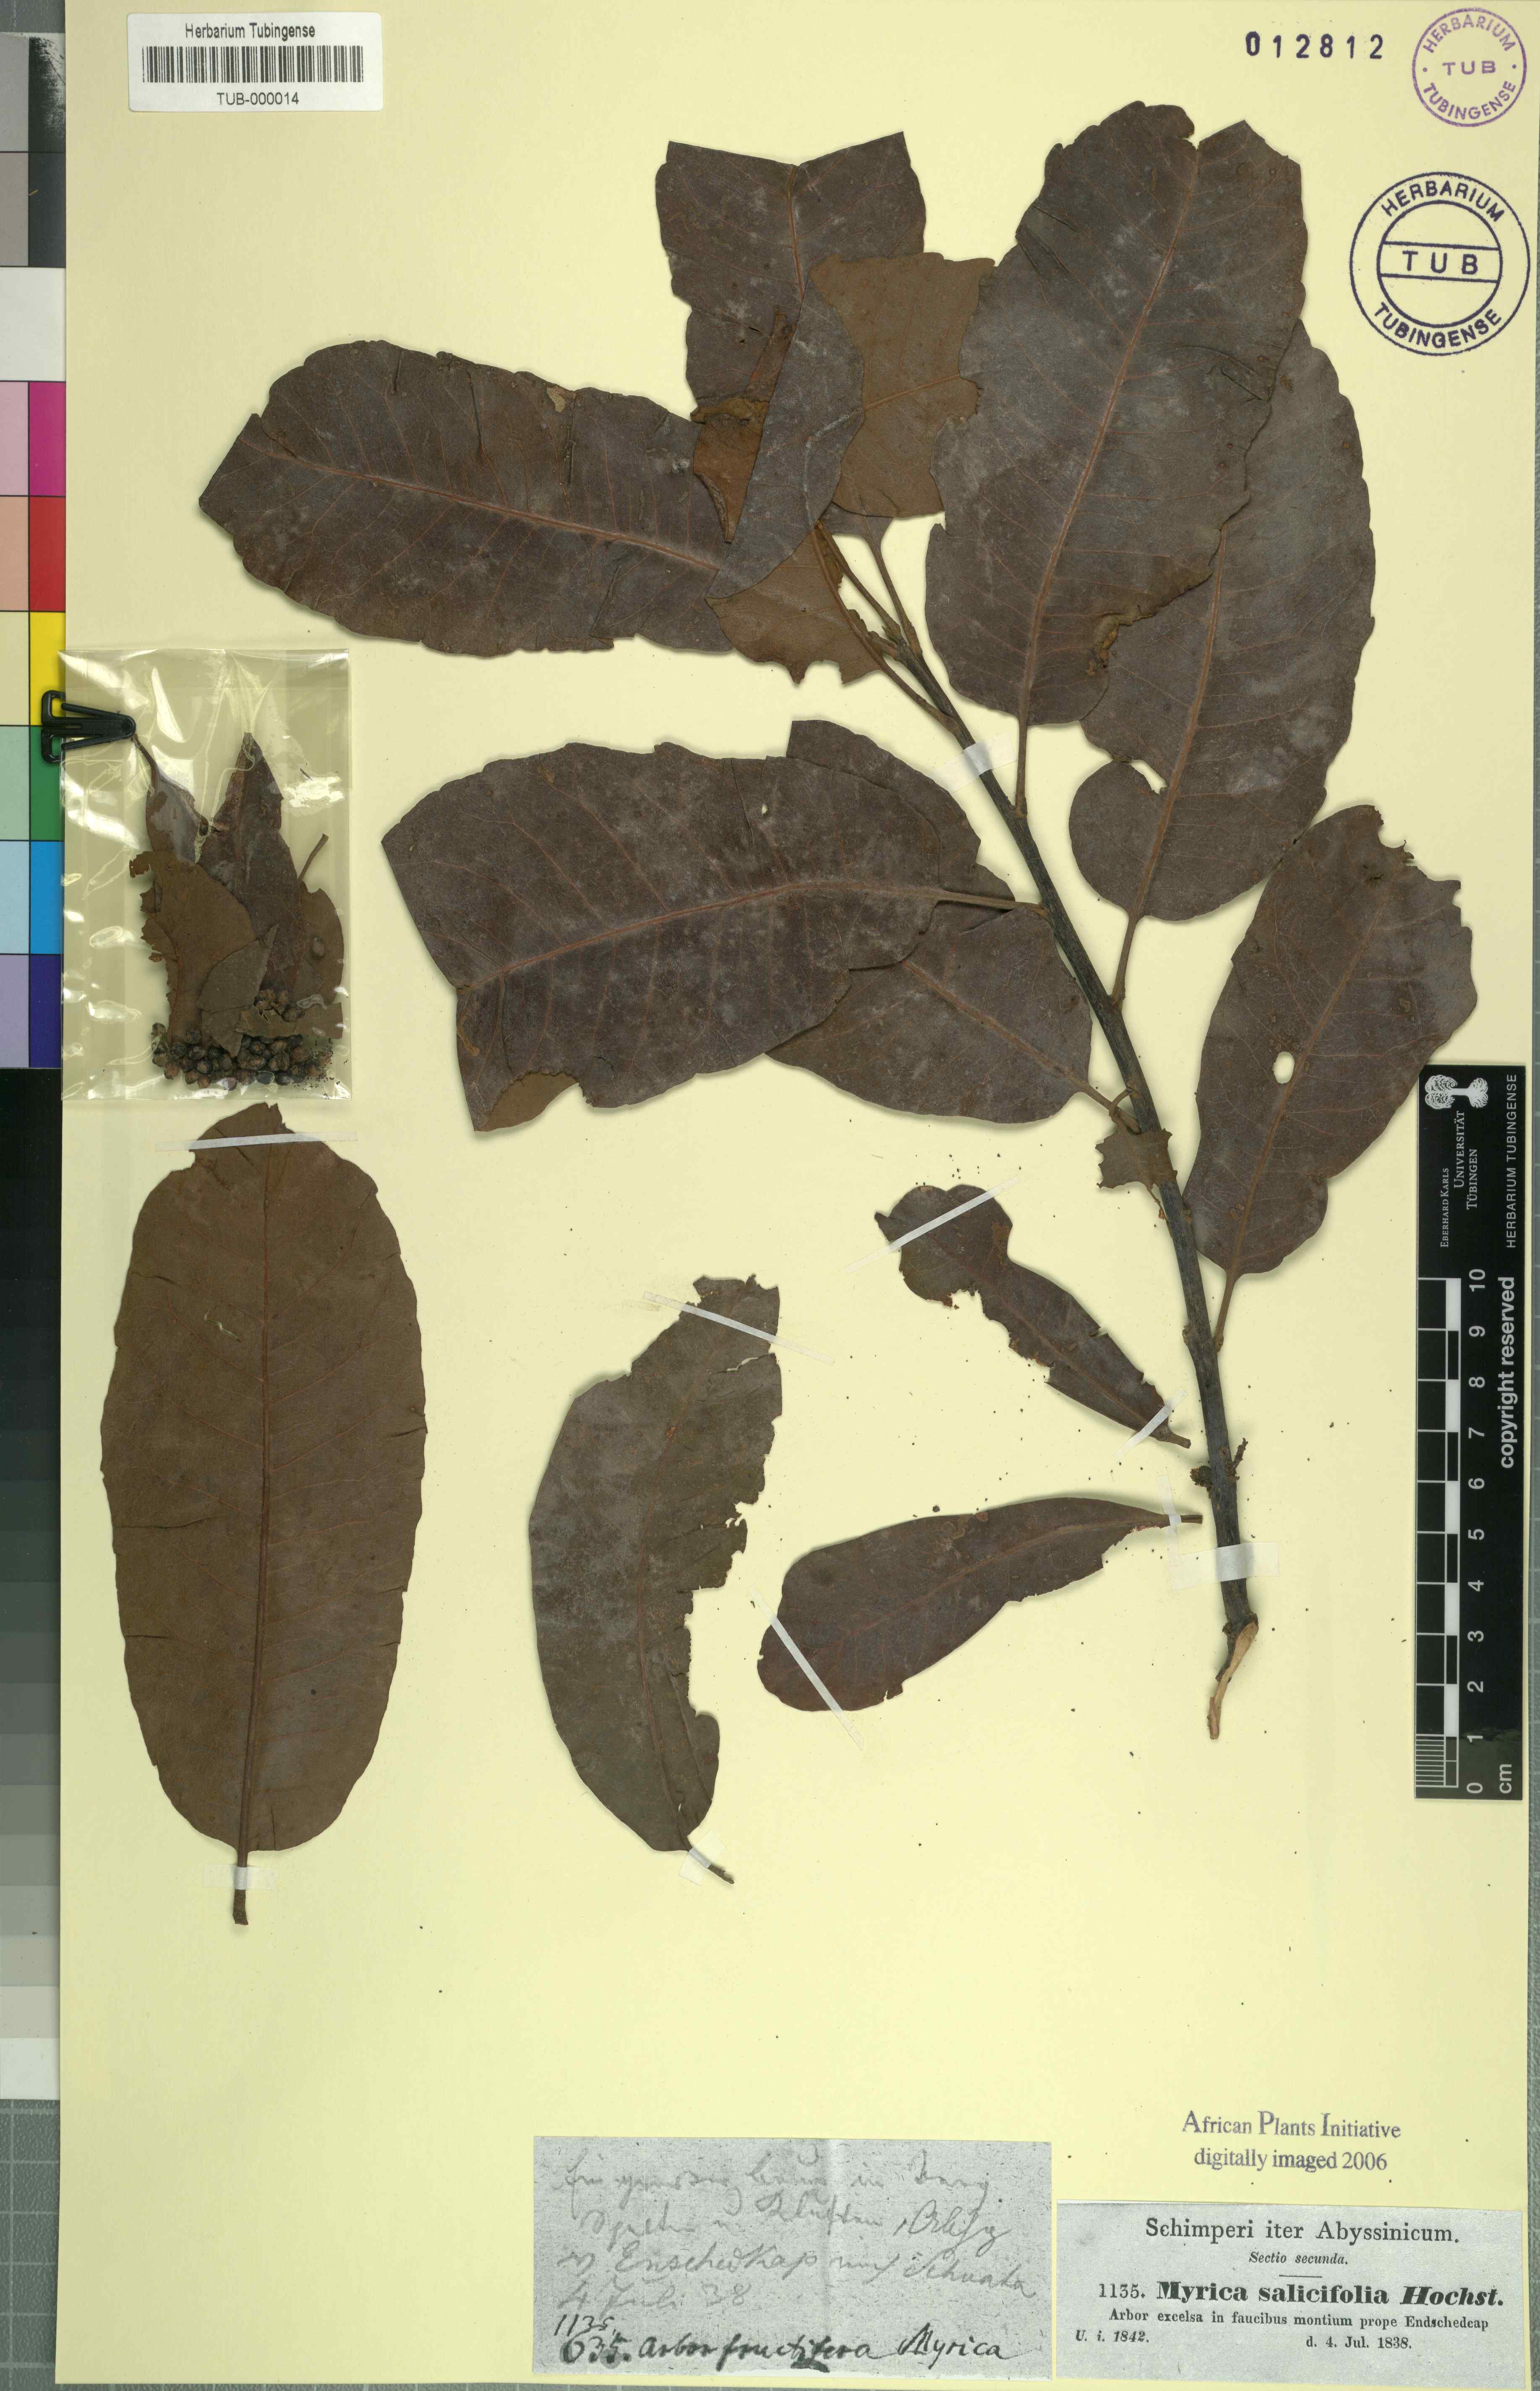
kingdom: Plantae
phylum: Tracheophyta
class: Magnoliopsida
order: Fagales
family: Myricaceae
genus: Morella
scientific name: Morella salicifolia
